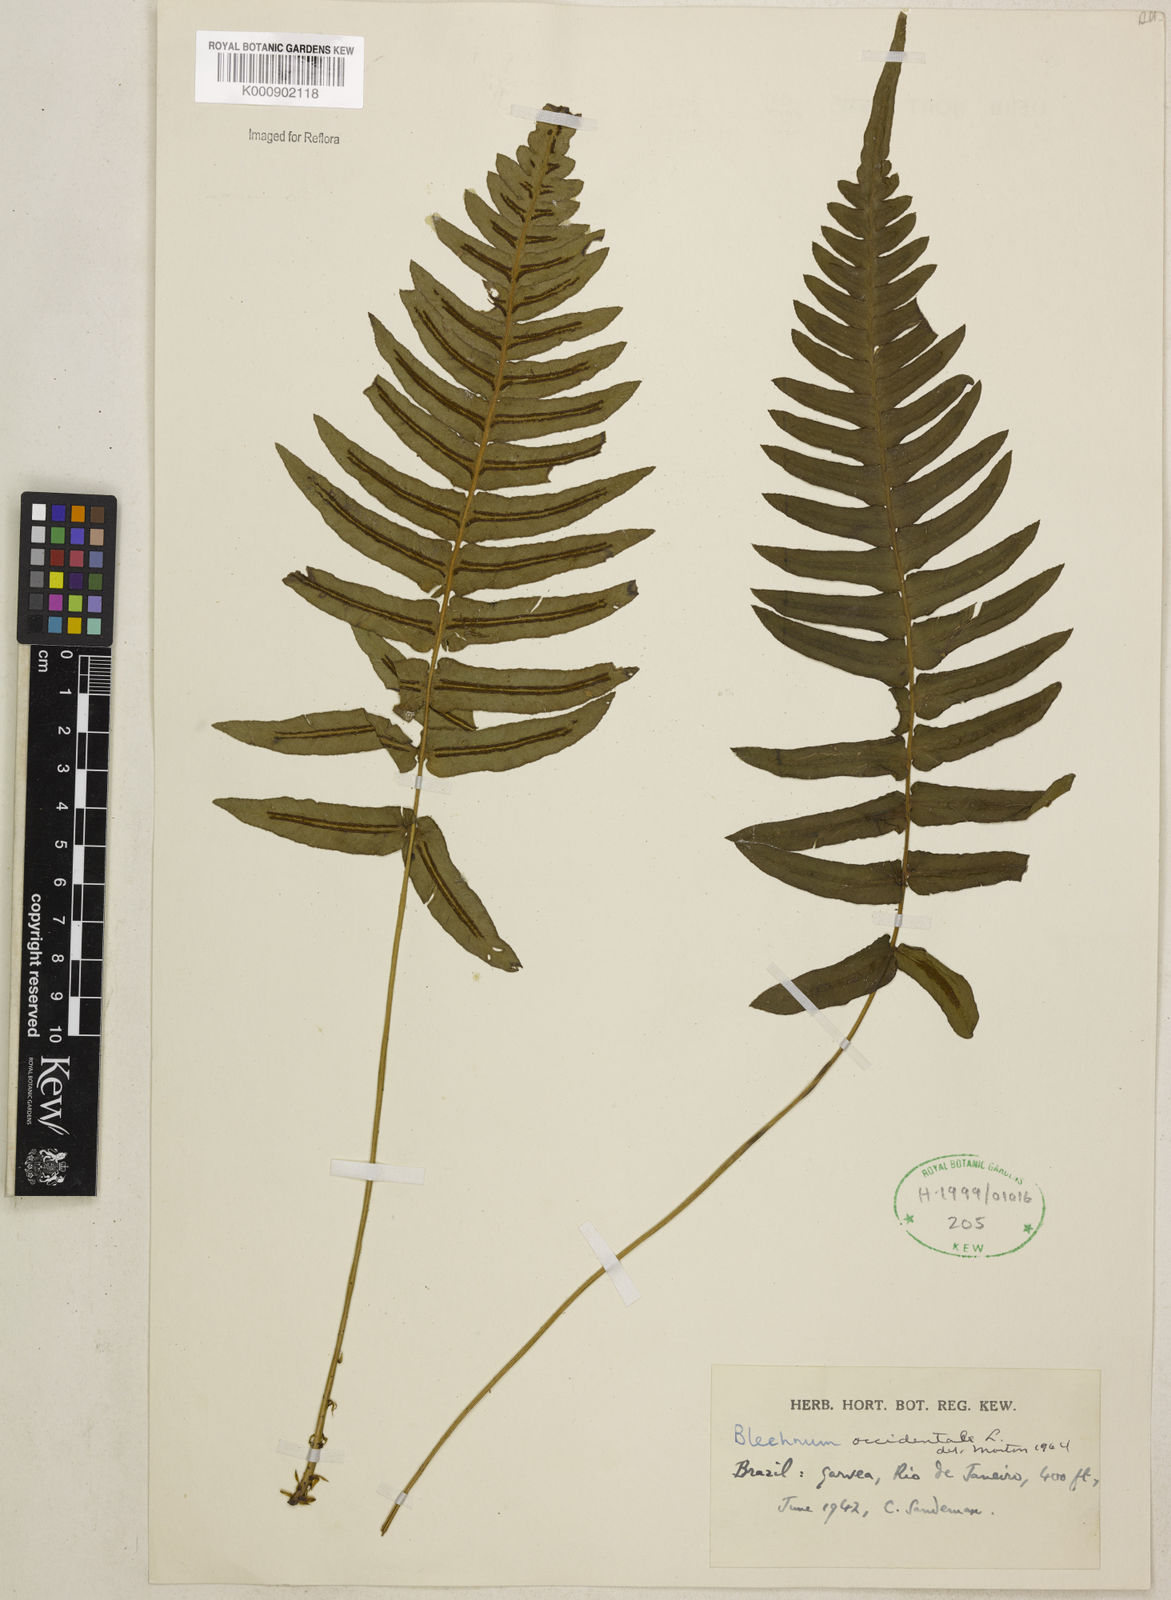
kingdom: Plantae
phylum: Tracheophyta
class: Polypodiopsida
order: Polypodiales
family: Blechnaceae
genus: Blechnum
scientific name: Blechnum occidentale
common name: Hammock fern
